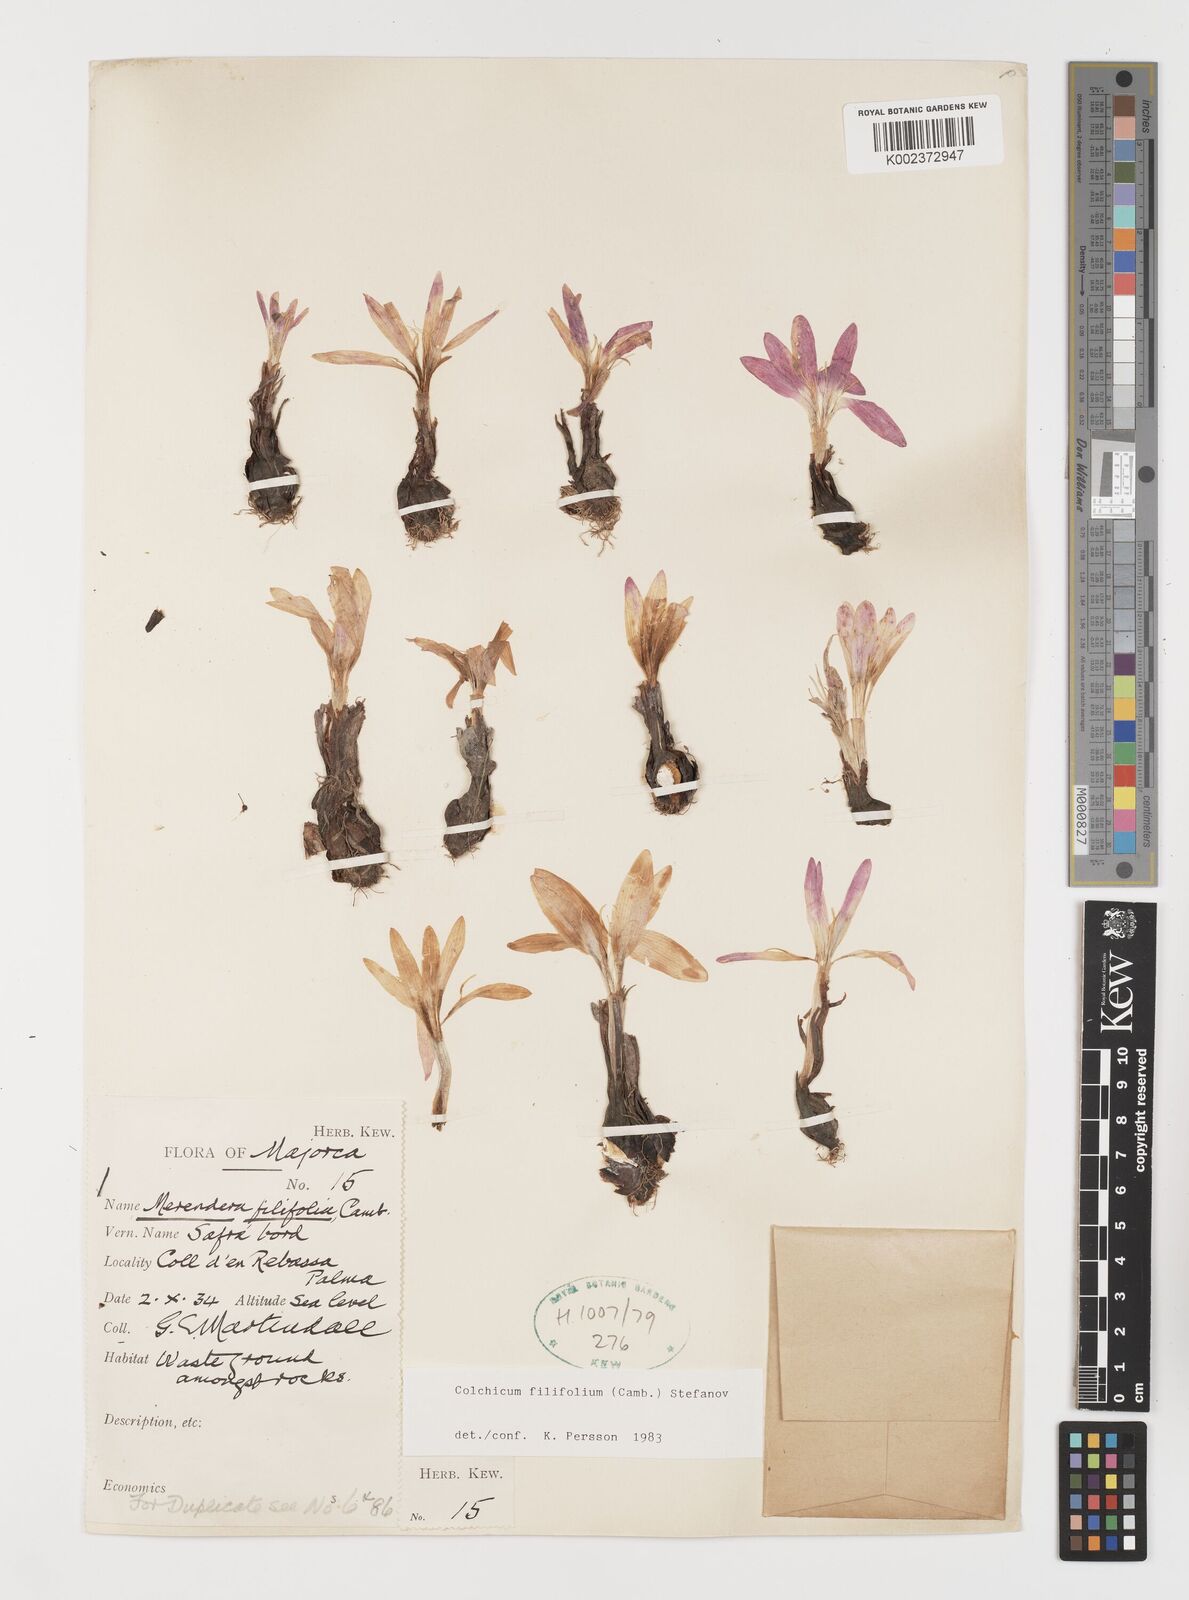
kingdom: Plantae
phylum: Tracheophyta
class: Liliopsida
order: Liliales
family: Colchicaceae
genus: Colchicum
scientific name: Colchicum filifolium
